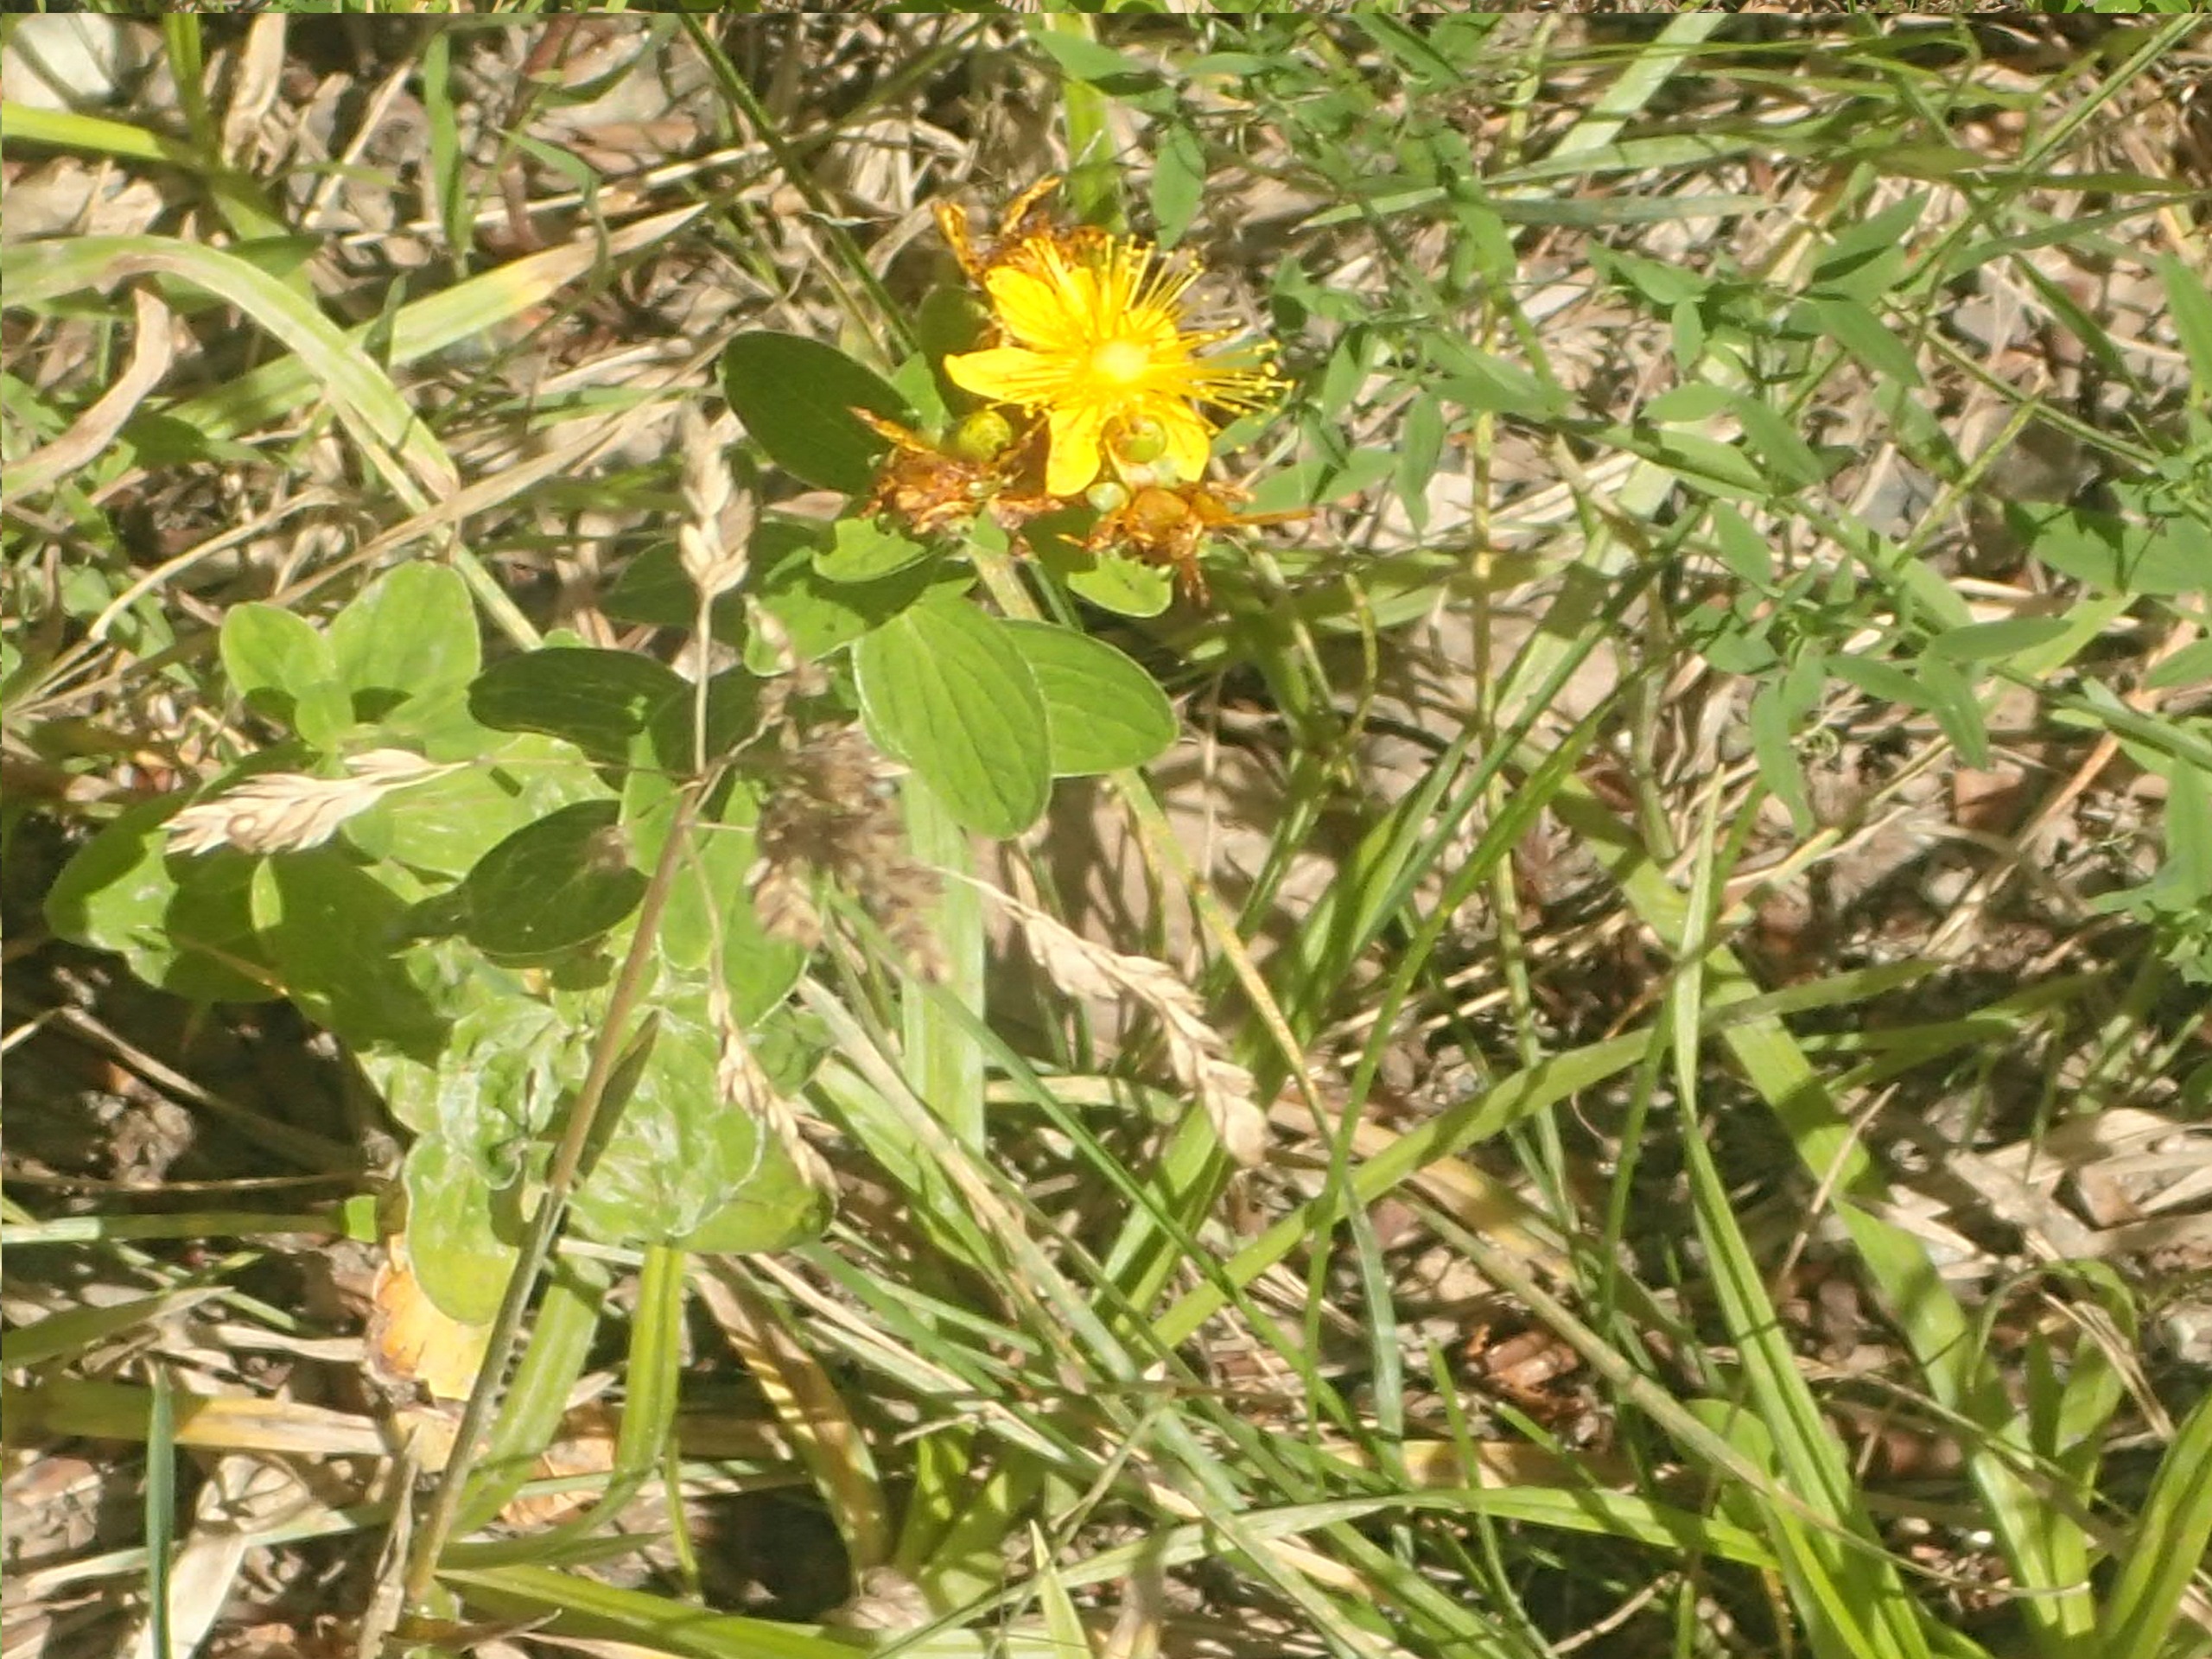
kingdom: Plantae
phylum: Tracheophyta
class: Magnoliopsida
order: Malpighiales
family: Hypericaceae
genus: Hypericum
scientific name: Hypericum maculatum
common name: Kantet perikon
